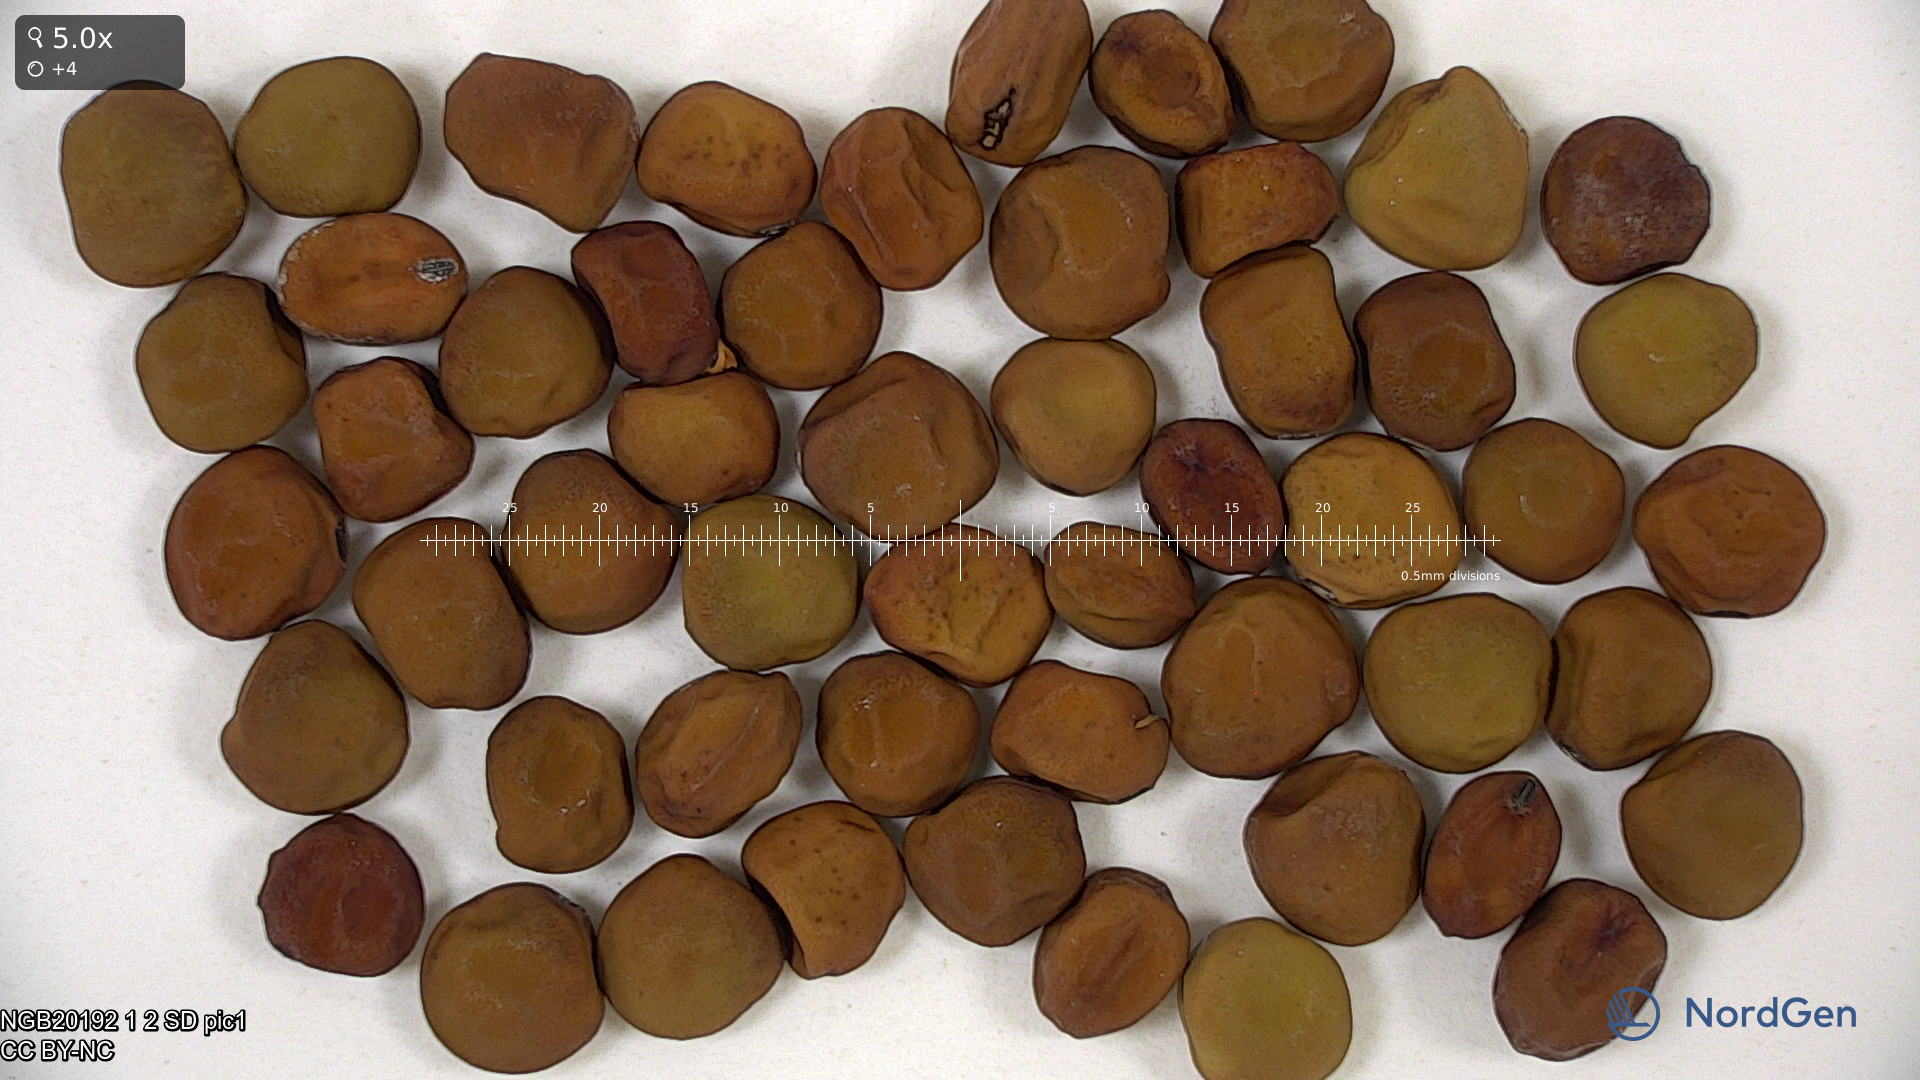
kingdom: Plantae
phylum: Tracheophyta
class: Magnoliopsida
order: Fabales
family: Fabaceae
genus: Lathyrus
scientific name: Lathyrus oleraceus
